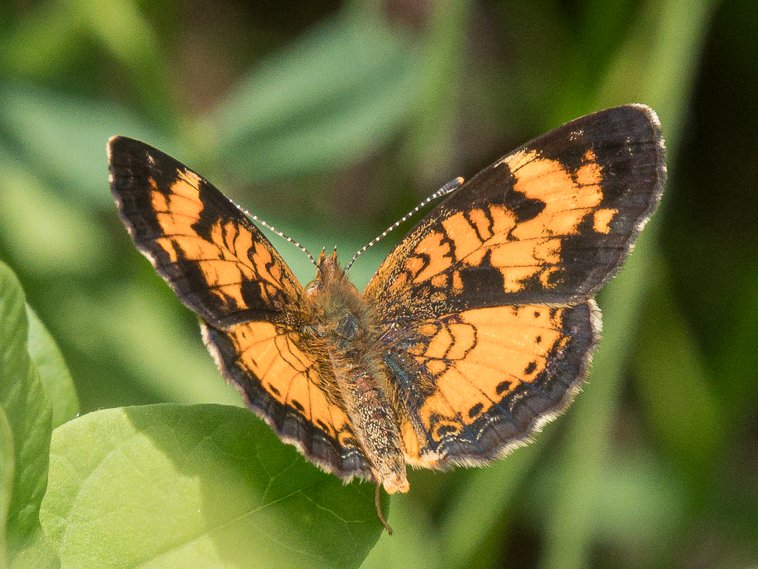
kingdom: Animalia
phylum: Arthropoda
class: Insecta
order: Lepidoptera
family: Nymphalidae
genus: Phyciodes
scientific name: Phyciodes tharos
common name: Northern Crescent
